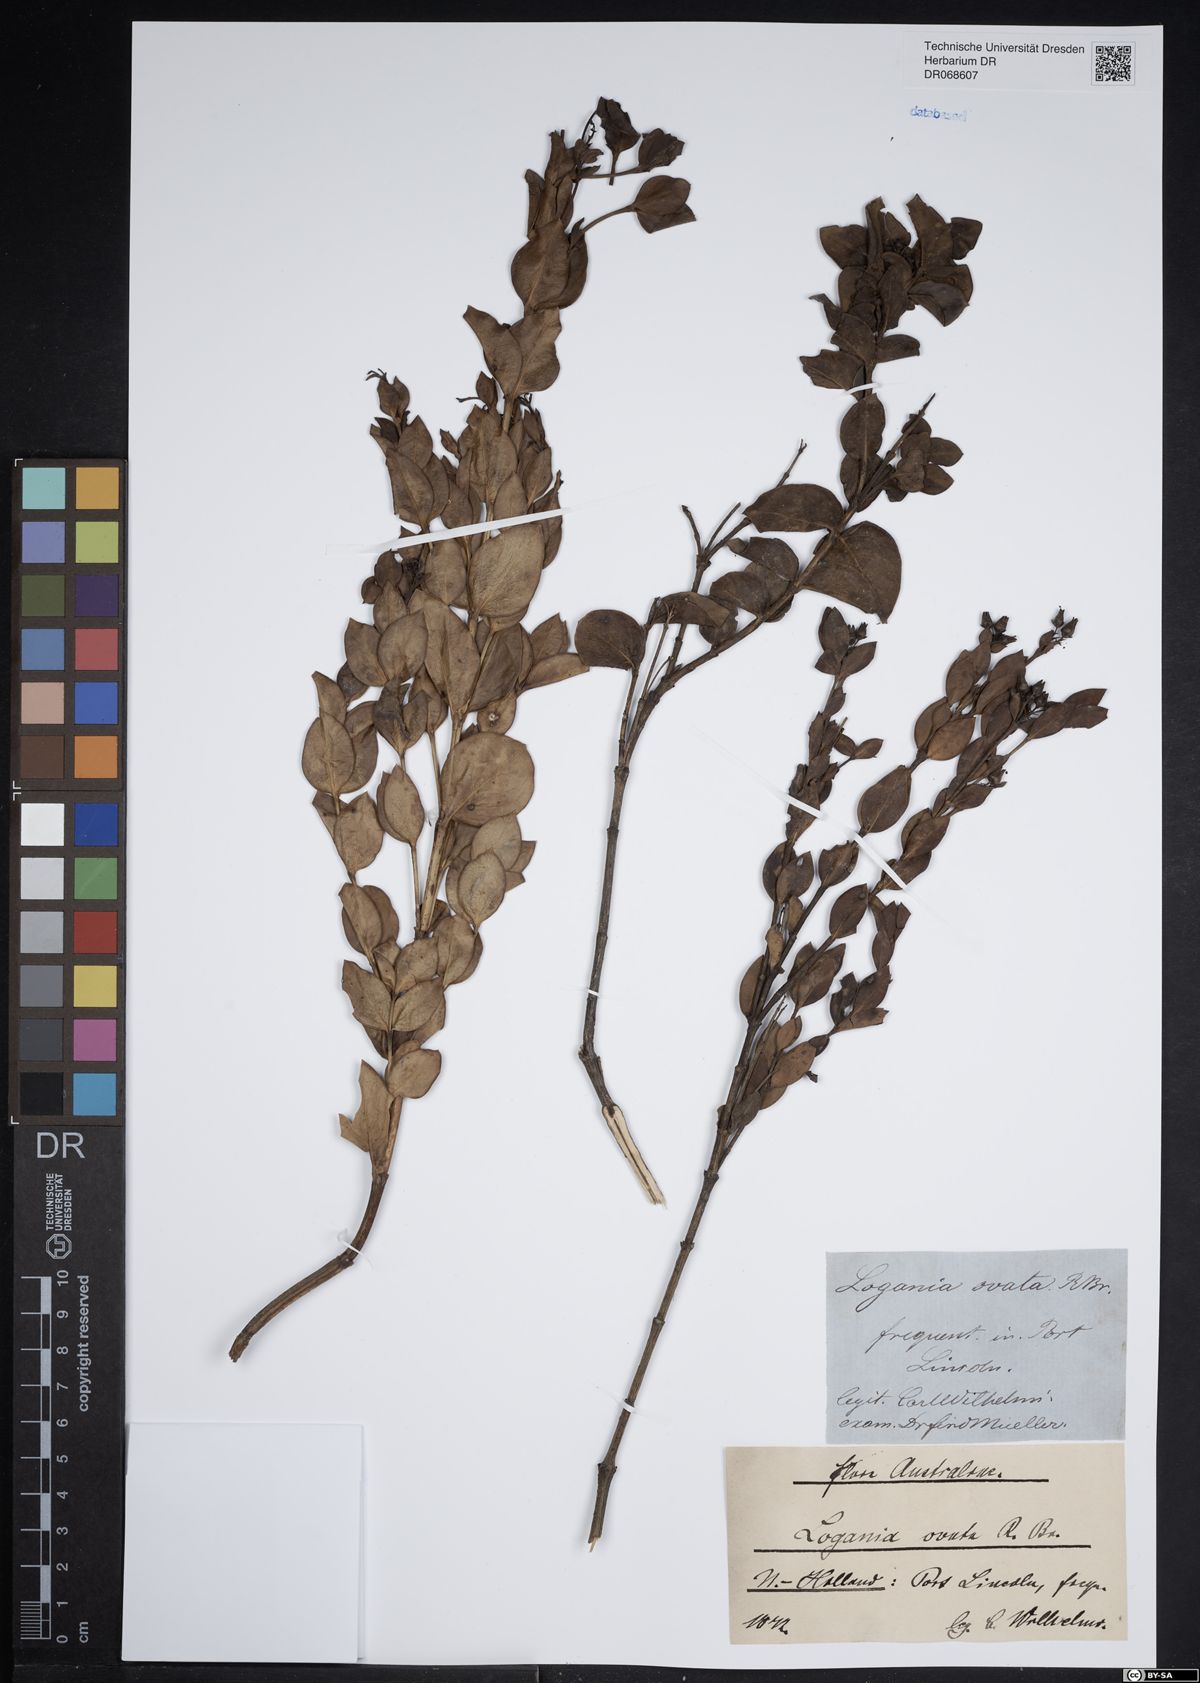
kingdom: Plantae
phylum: Tracheophyta
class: Magnoliopsida
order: Gentianales
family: Loganiaceae
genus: Logania
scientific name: Logania ovata
